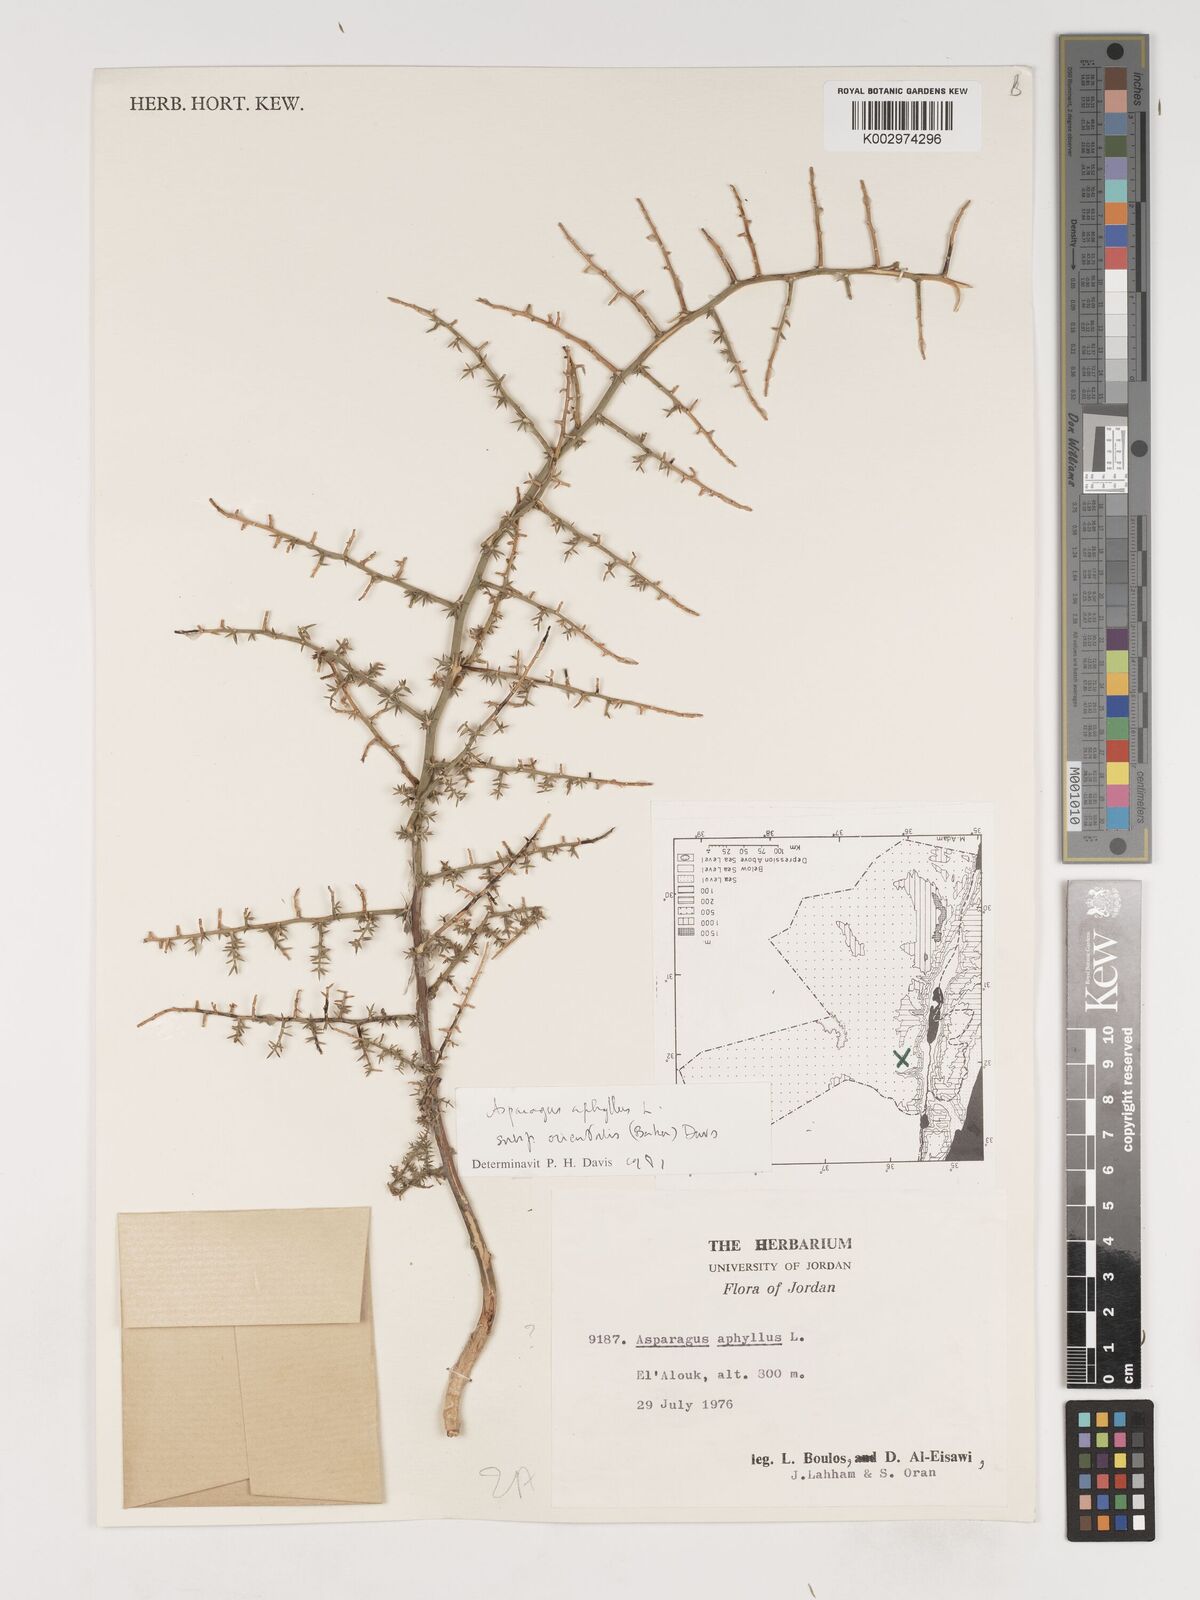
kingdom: Plantae
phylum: Tracheophyta
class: Liliopsida
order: Asparagales
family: Asparagaceae
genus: Asparagus
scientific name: Asparagus aphyllus
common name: Mediterranean asparagus
